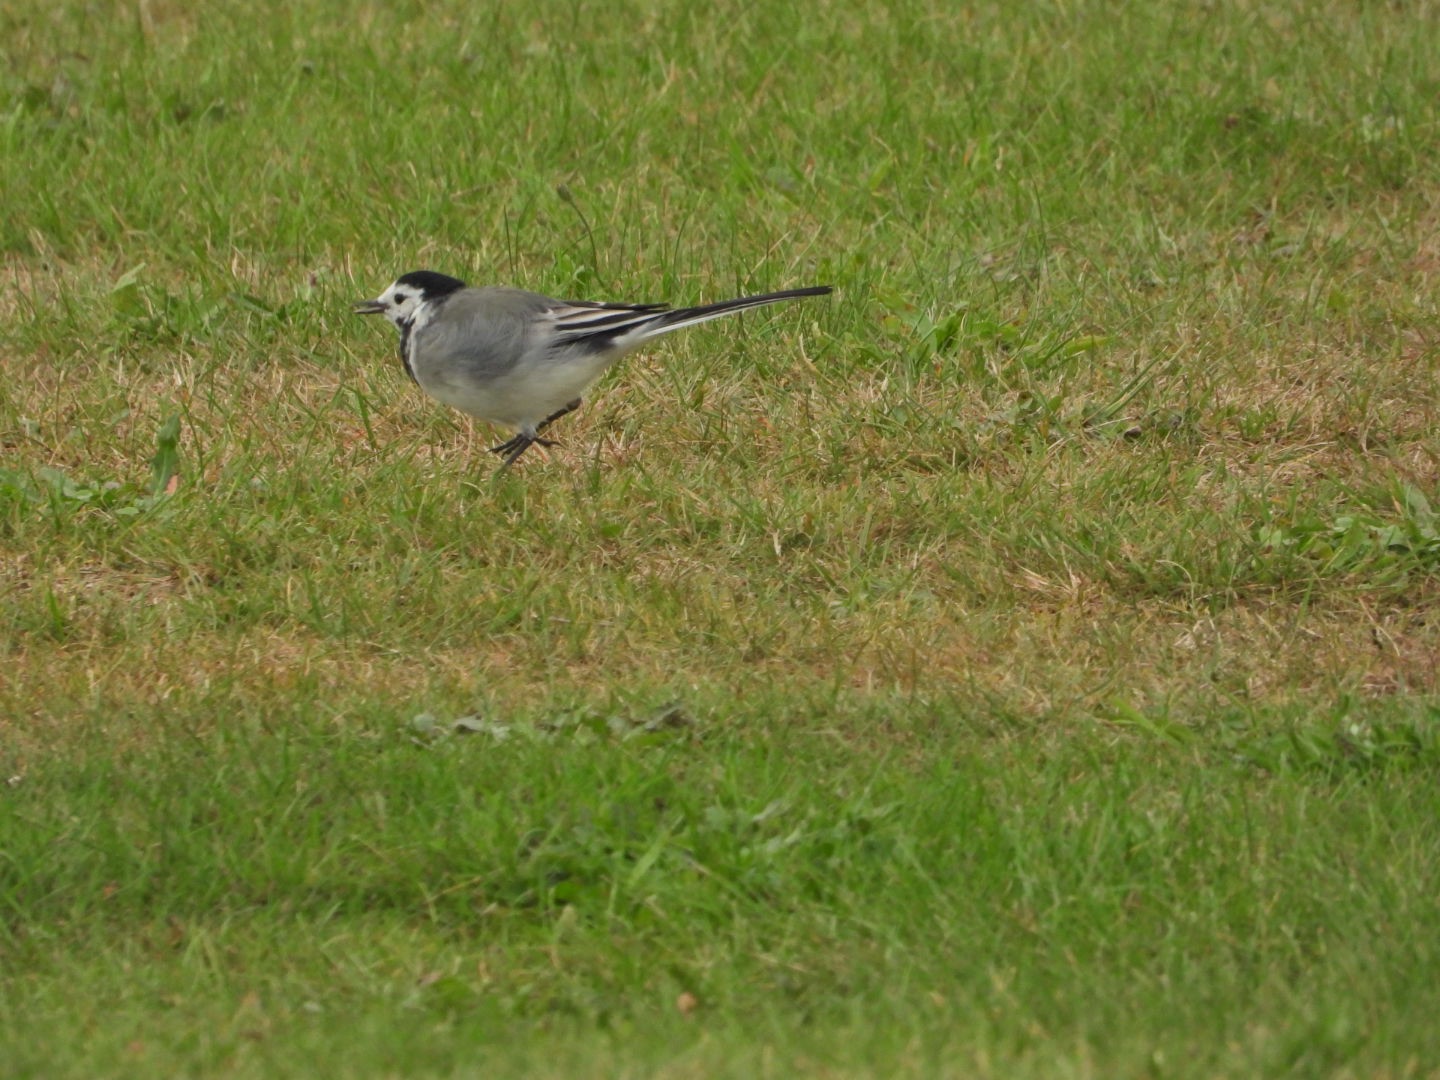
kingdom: Animalia
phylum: Chordata
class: Aves
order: Passeriformes
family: Motacillidae
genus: Motacilla
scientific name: Motacilla alba
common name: Hvid vipstjert
